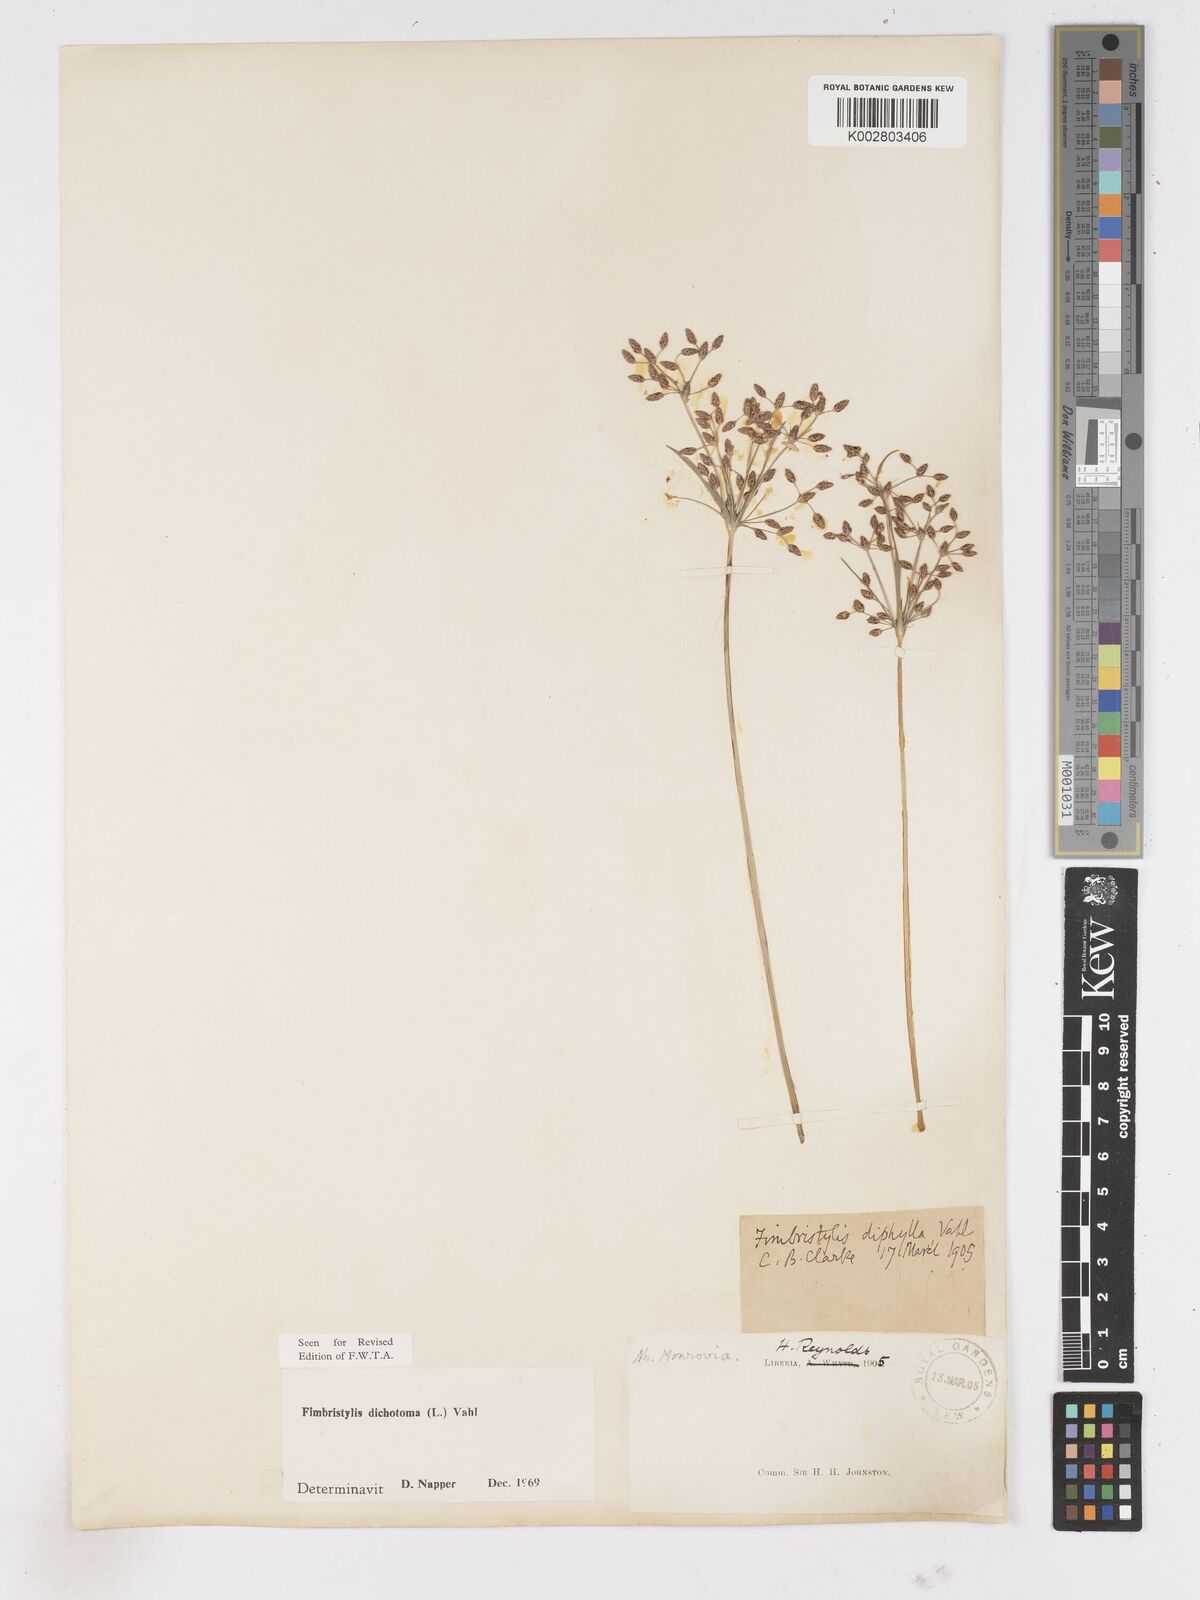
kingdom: Plantae
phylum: Tracheophyta
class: Liliopsida
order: Poales
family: Cyperaceae
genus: Fimbristylis
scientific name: Fimbristylis dichotoma
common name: Forked fimbry
